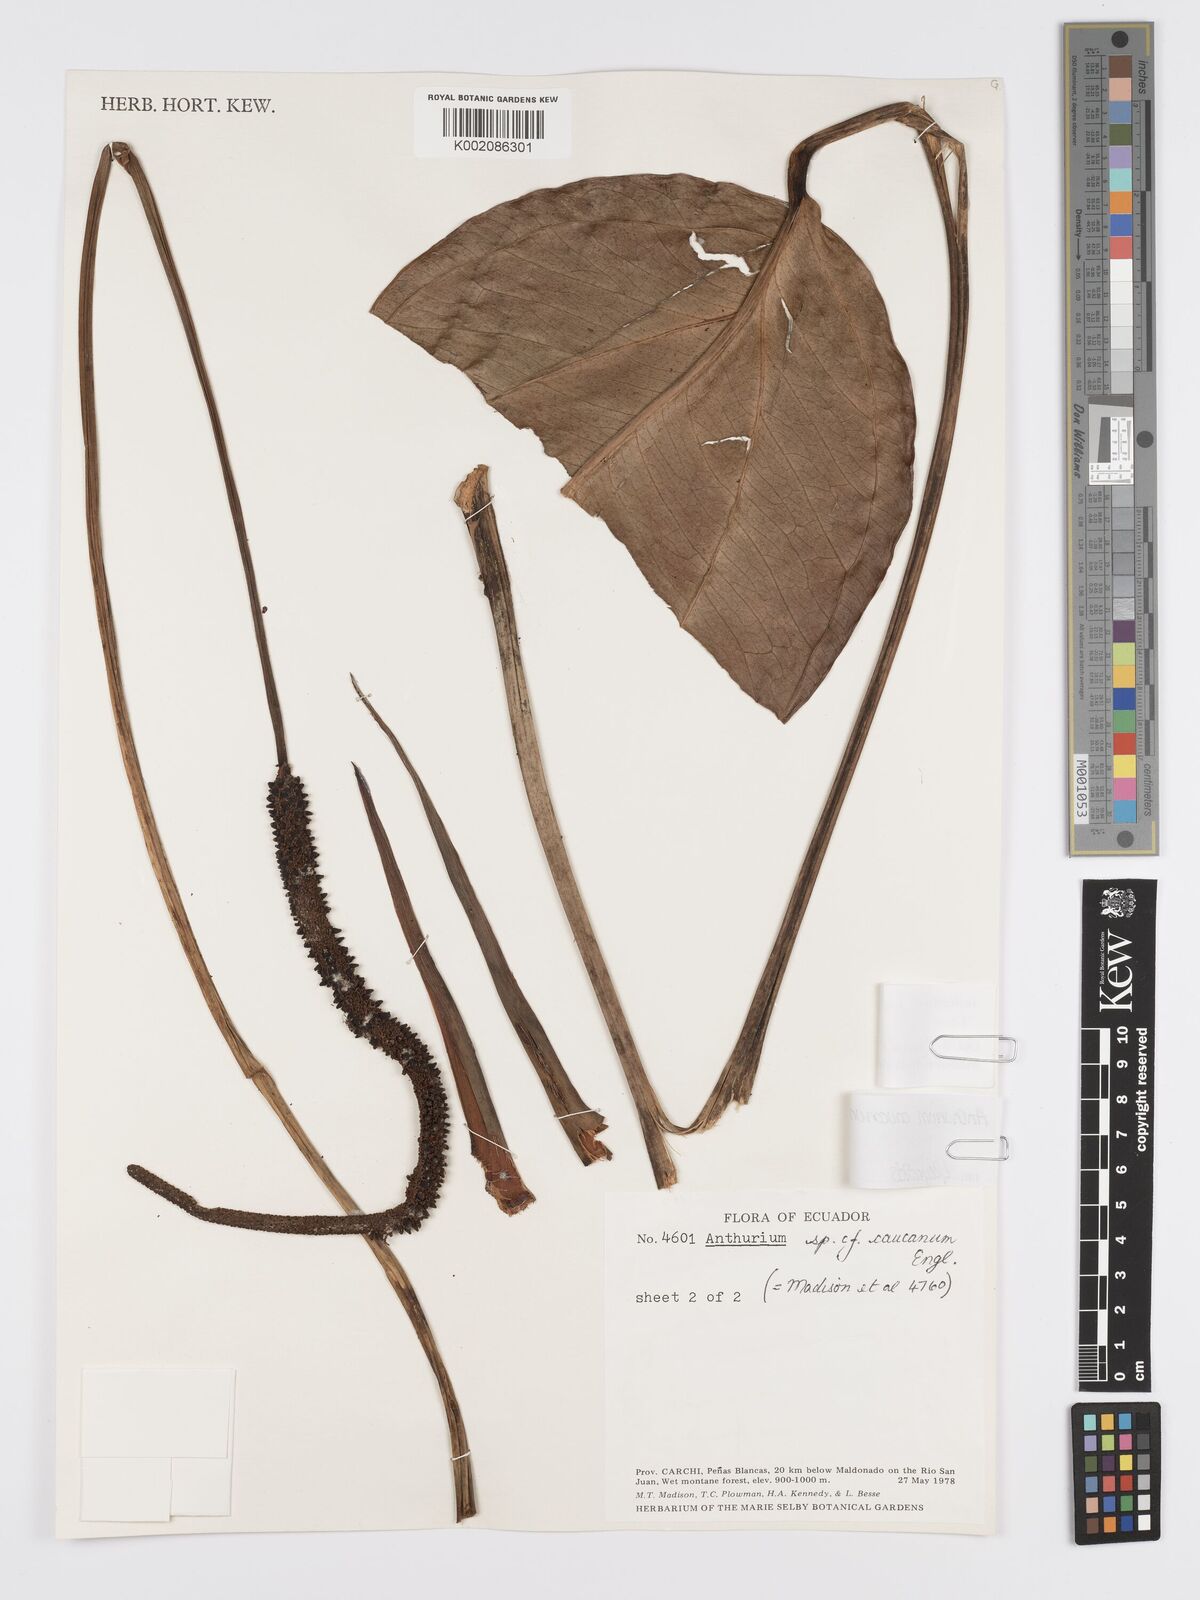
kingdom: Plantae
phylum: Tracheophyta
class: Liliopsida
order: Alismatales
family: Araceae
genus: Anthurium
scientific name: Anthurium jesusii
